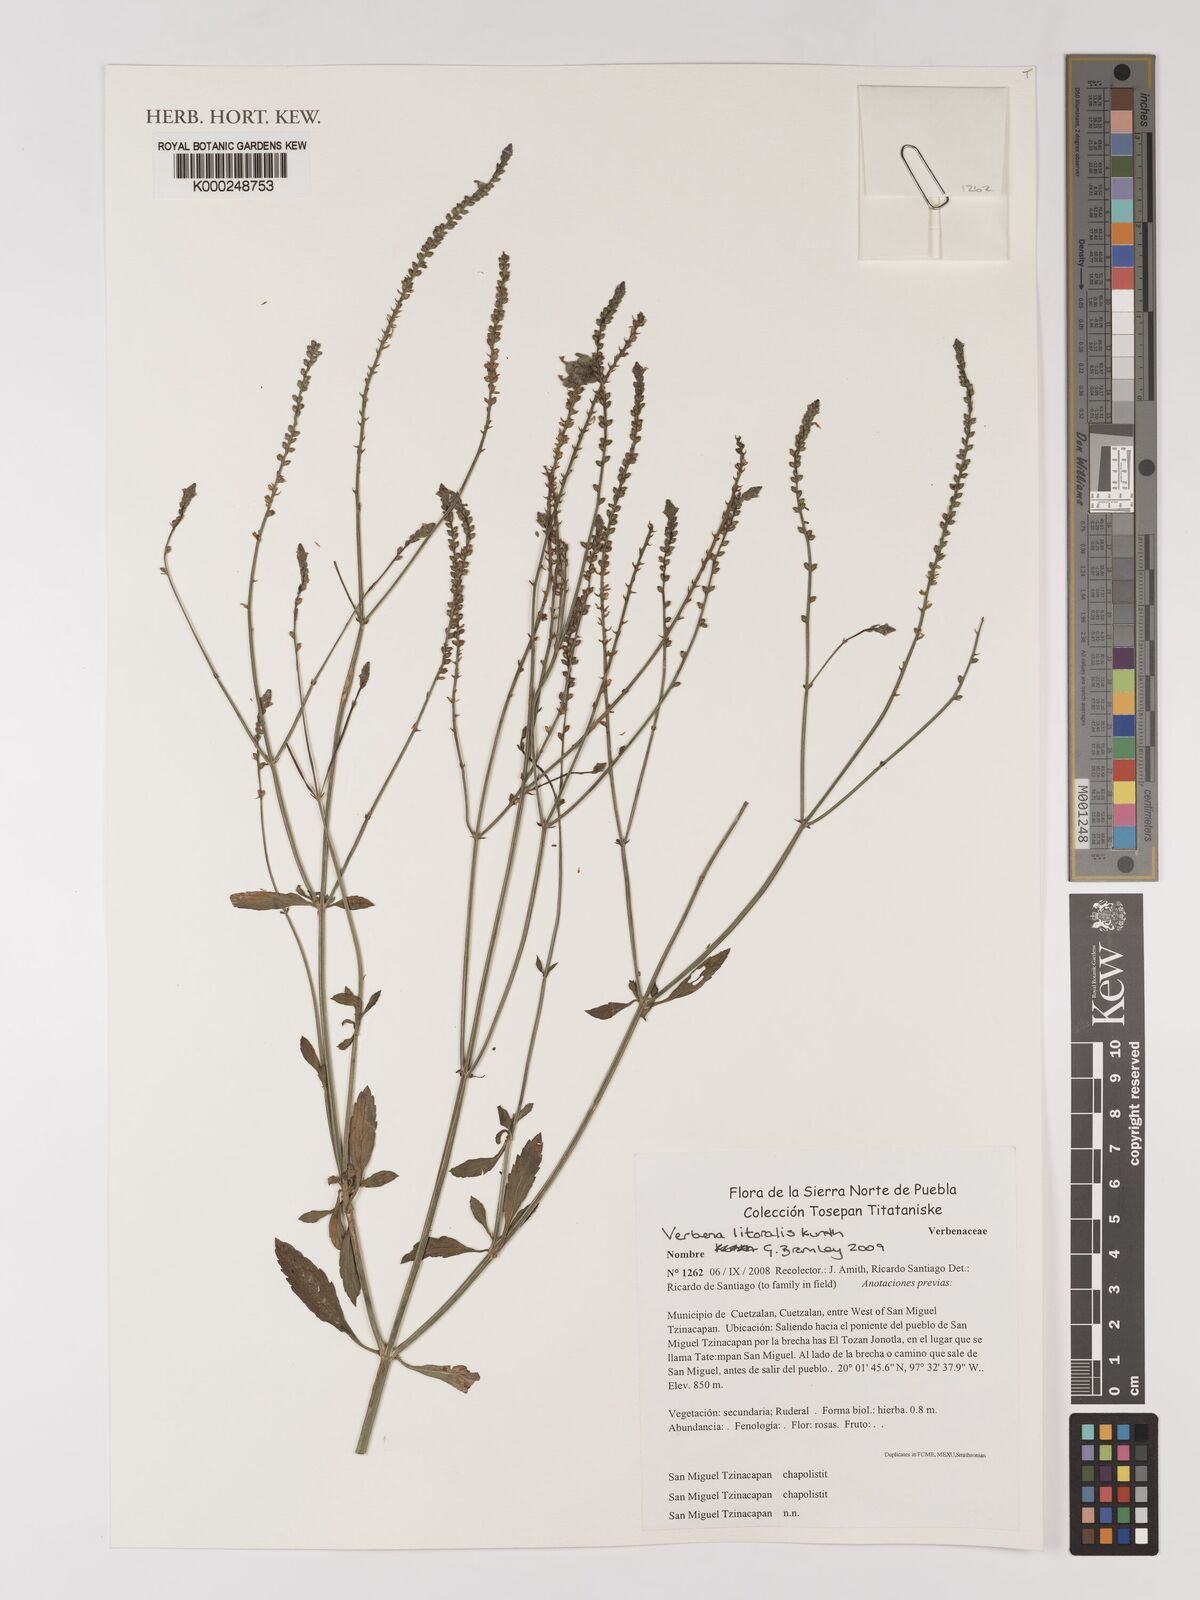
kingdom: Plantae
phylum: Tracheophyta
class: Magnoliopsida
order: Lamiales
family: Verbenaceae
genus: Verbena
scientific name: Verbena litoralis
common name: Seashore vervain
